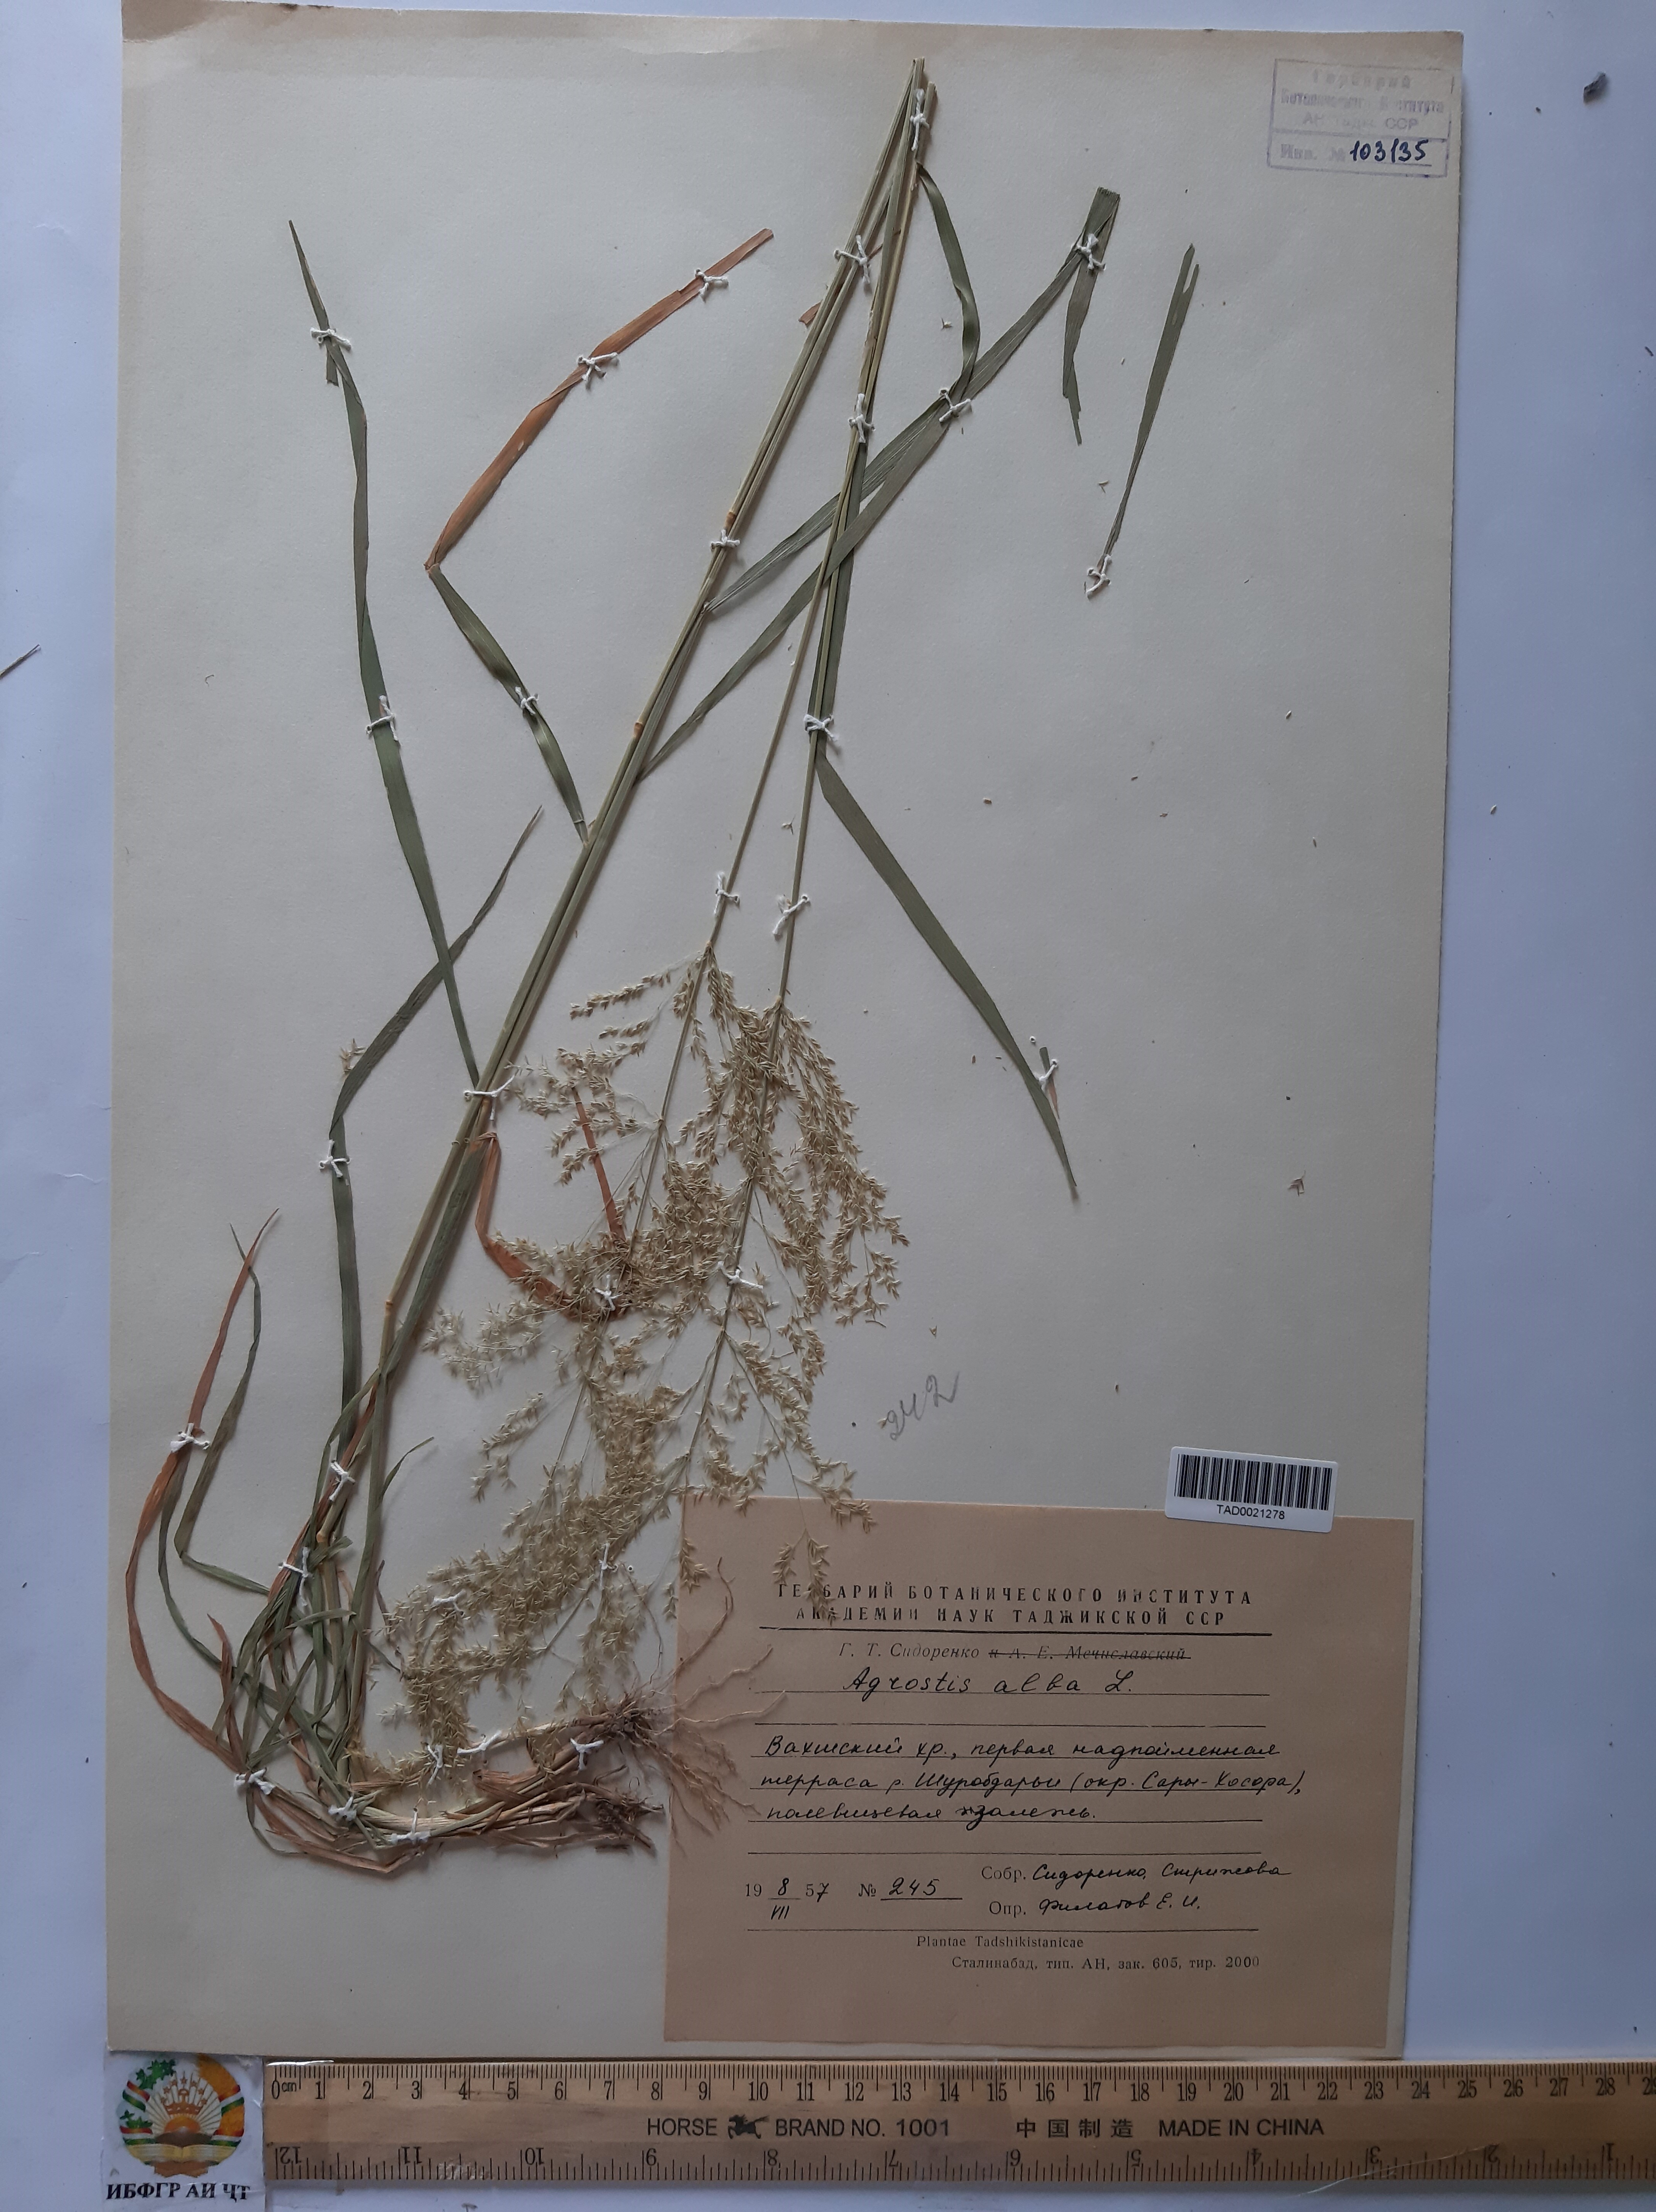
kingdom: Plantae
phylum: Tracheophyta
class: Liliopsida
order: Poales
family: Poaceae
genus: Poa
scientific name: Poa nemoralis
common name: Wood bluegrass
